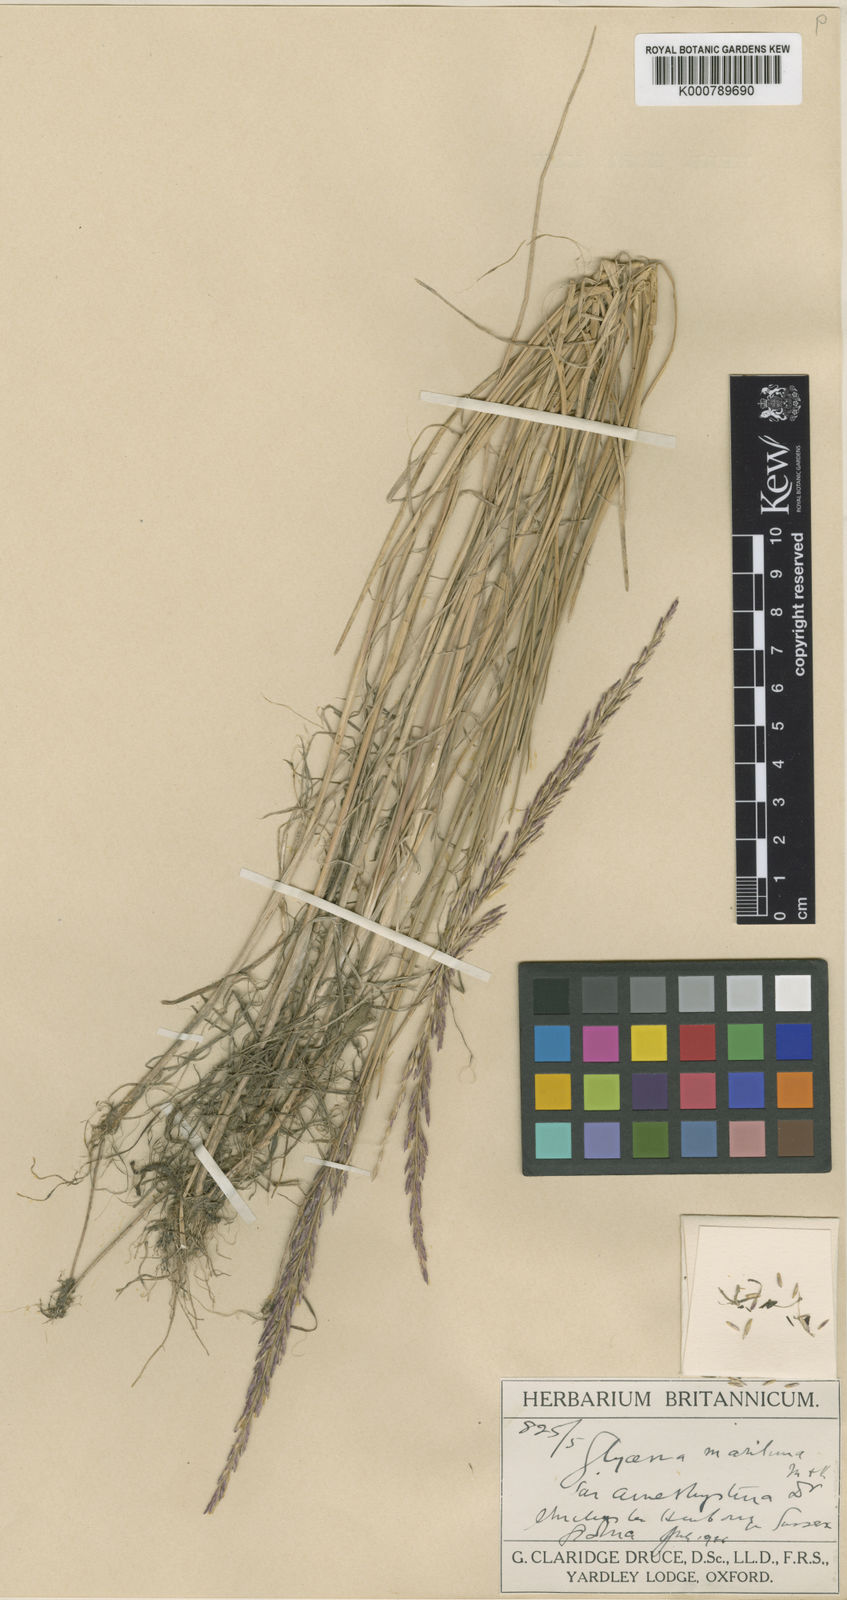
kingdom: Plantae
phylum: Tracheophyta
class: Liliopsida
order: Poales
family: Poaceae
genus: Puccinellia
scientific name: Puccinellia maritima
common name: Common saltmarsh grass
